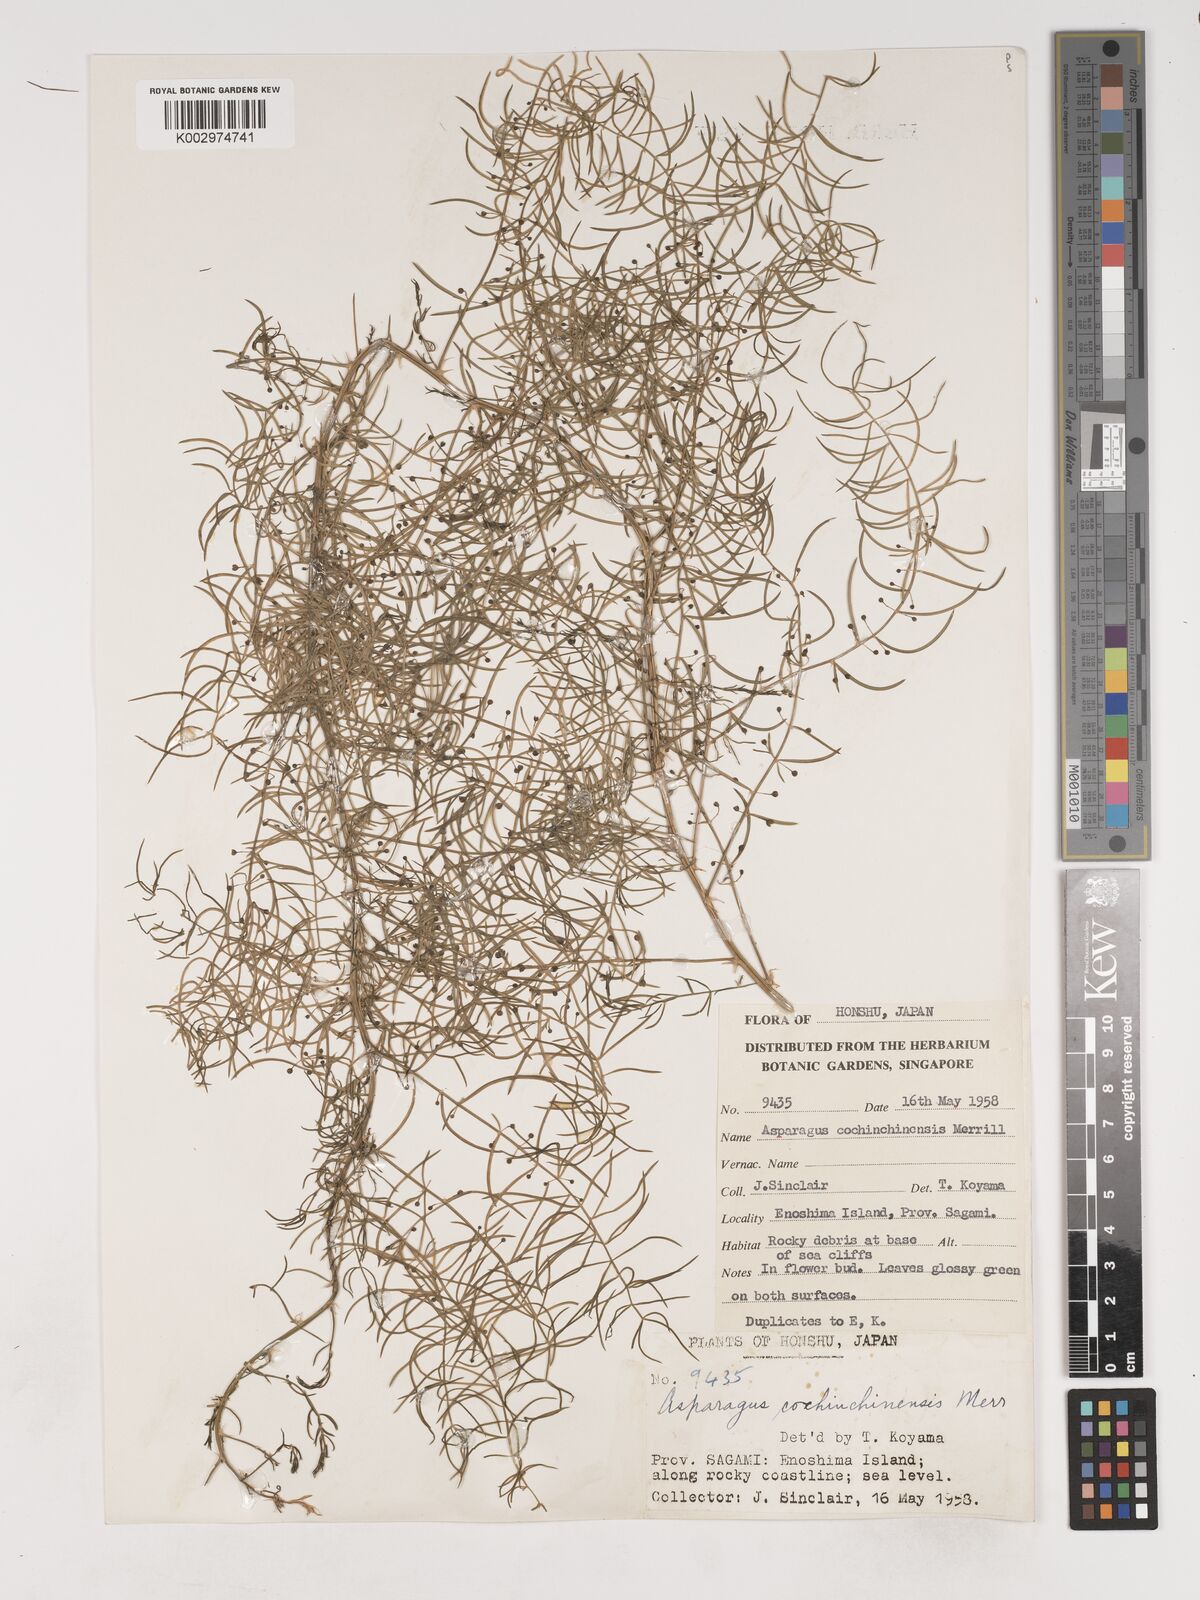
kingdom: Plantae
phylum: Tracheophyta
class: Liliopsida
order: Asparagales
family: Asparagaceae
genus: Asparagus
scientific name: Asparagus cochinchinensis
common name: Chinese asparagus
